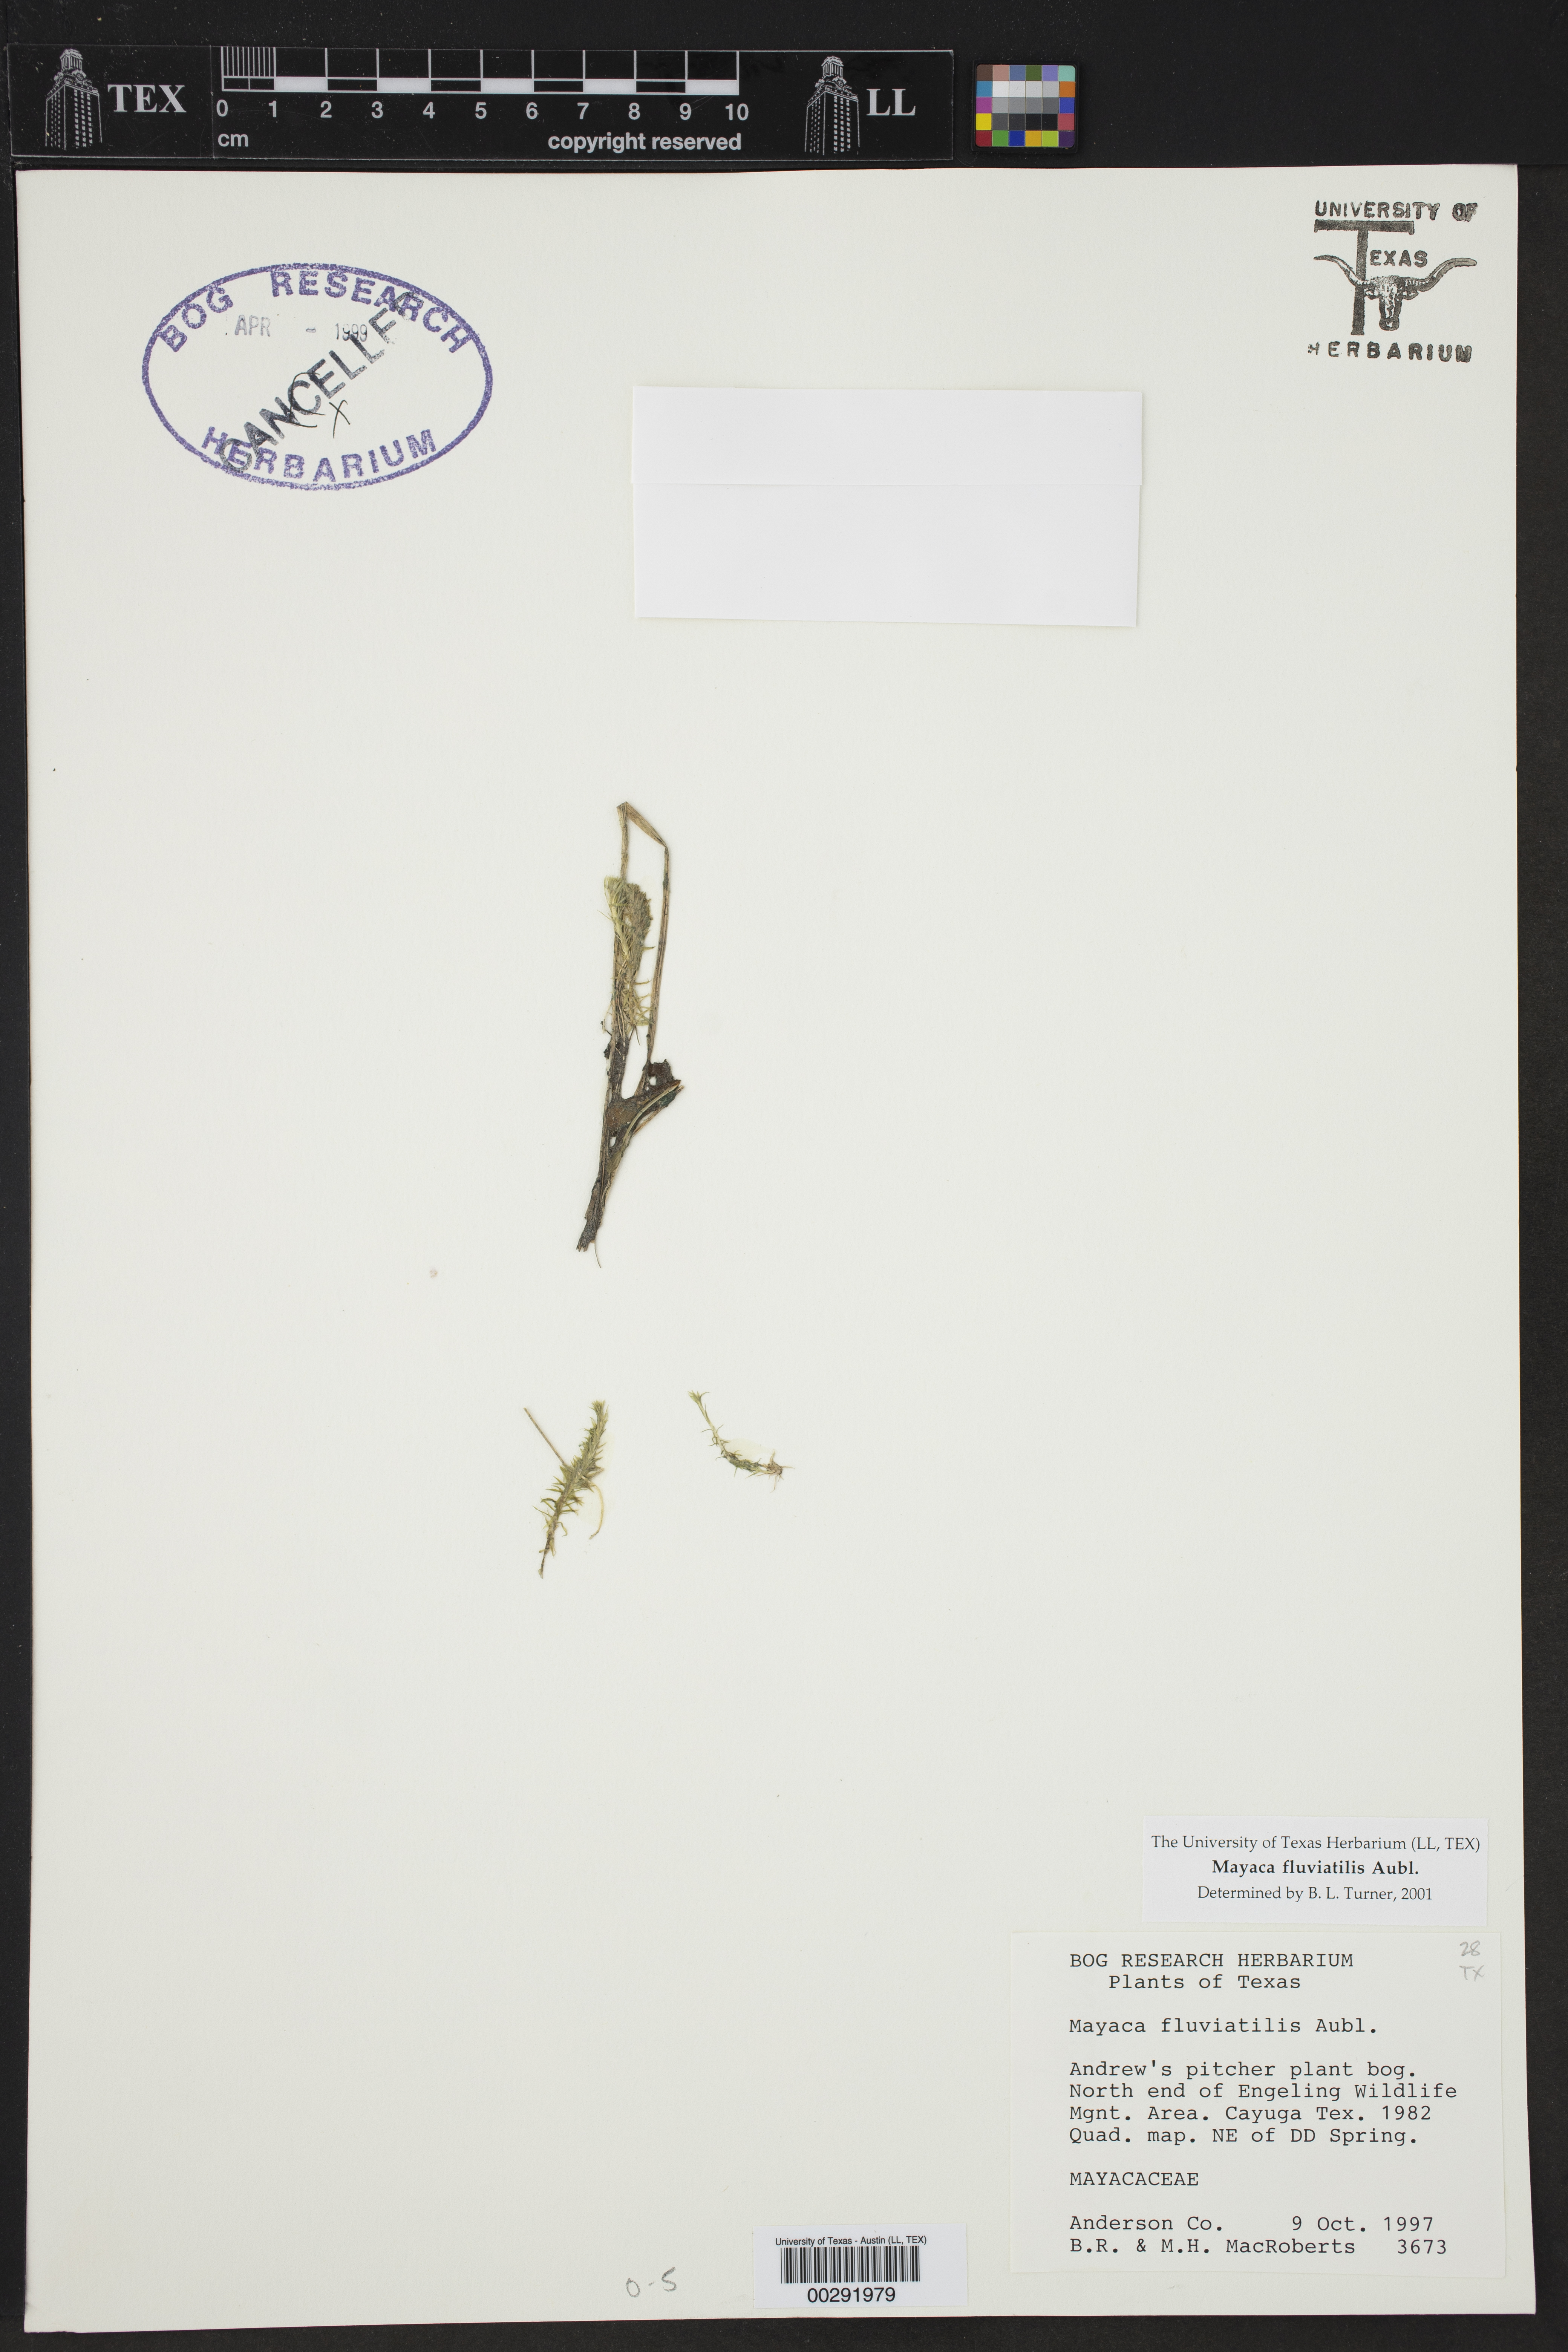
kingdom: Plantae
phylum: Tracheophyta
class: Liliopsida
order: Poales
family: Mayacaceae
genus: Mayaca
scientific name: Mayaca fluviatilis
